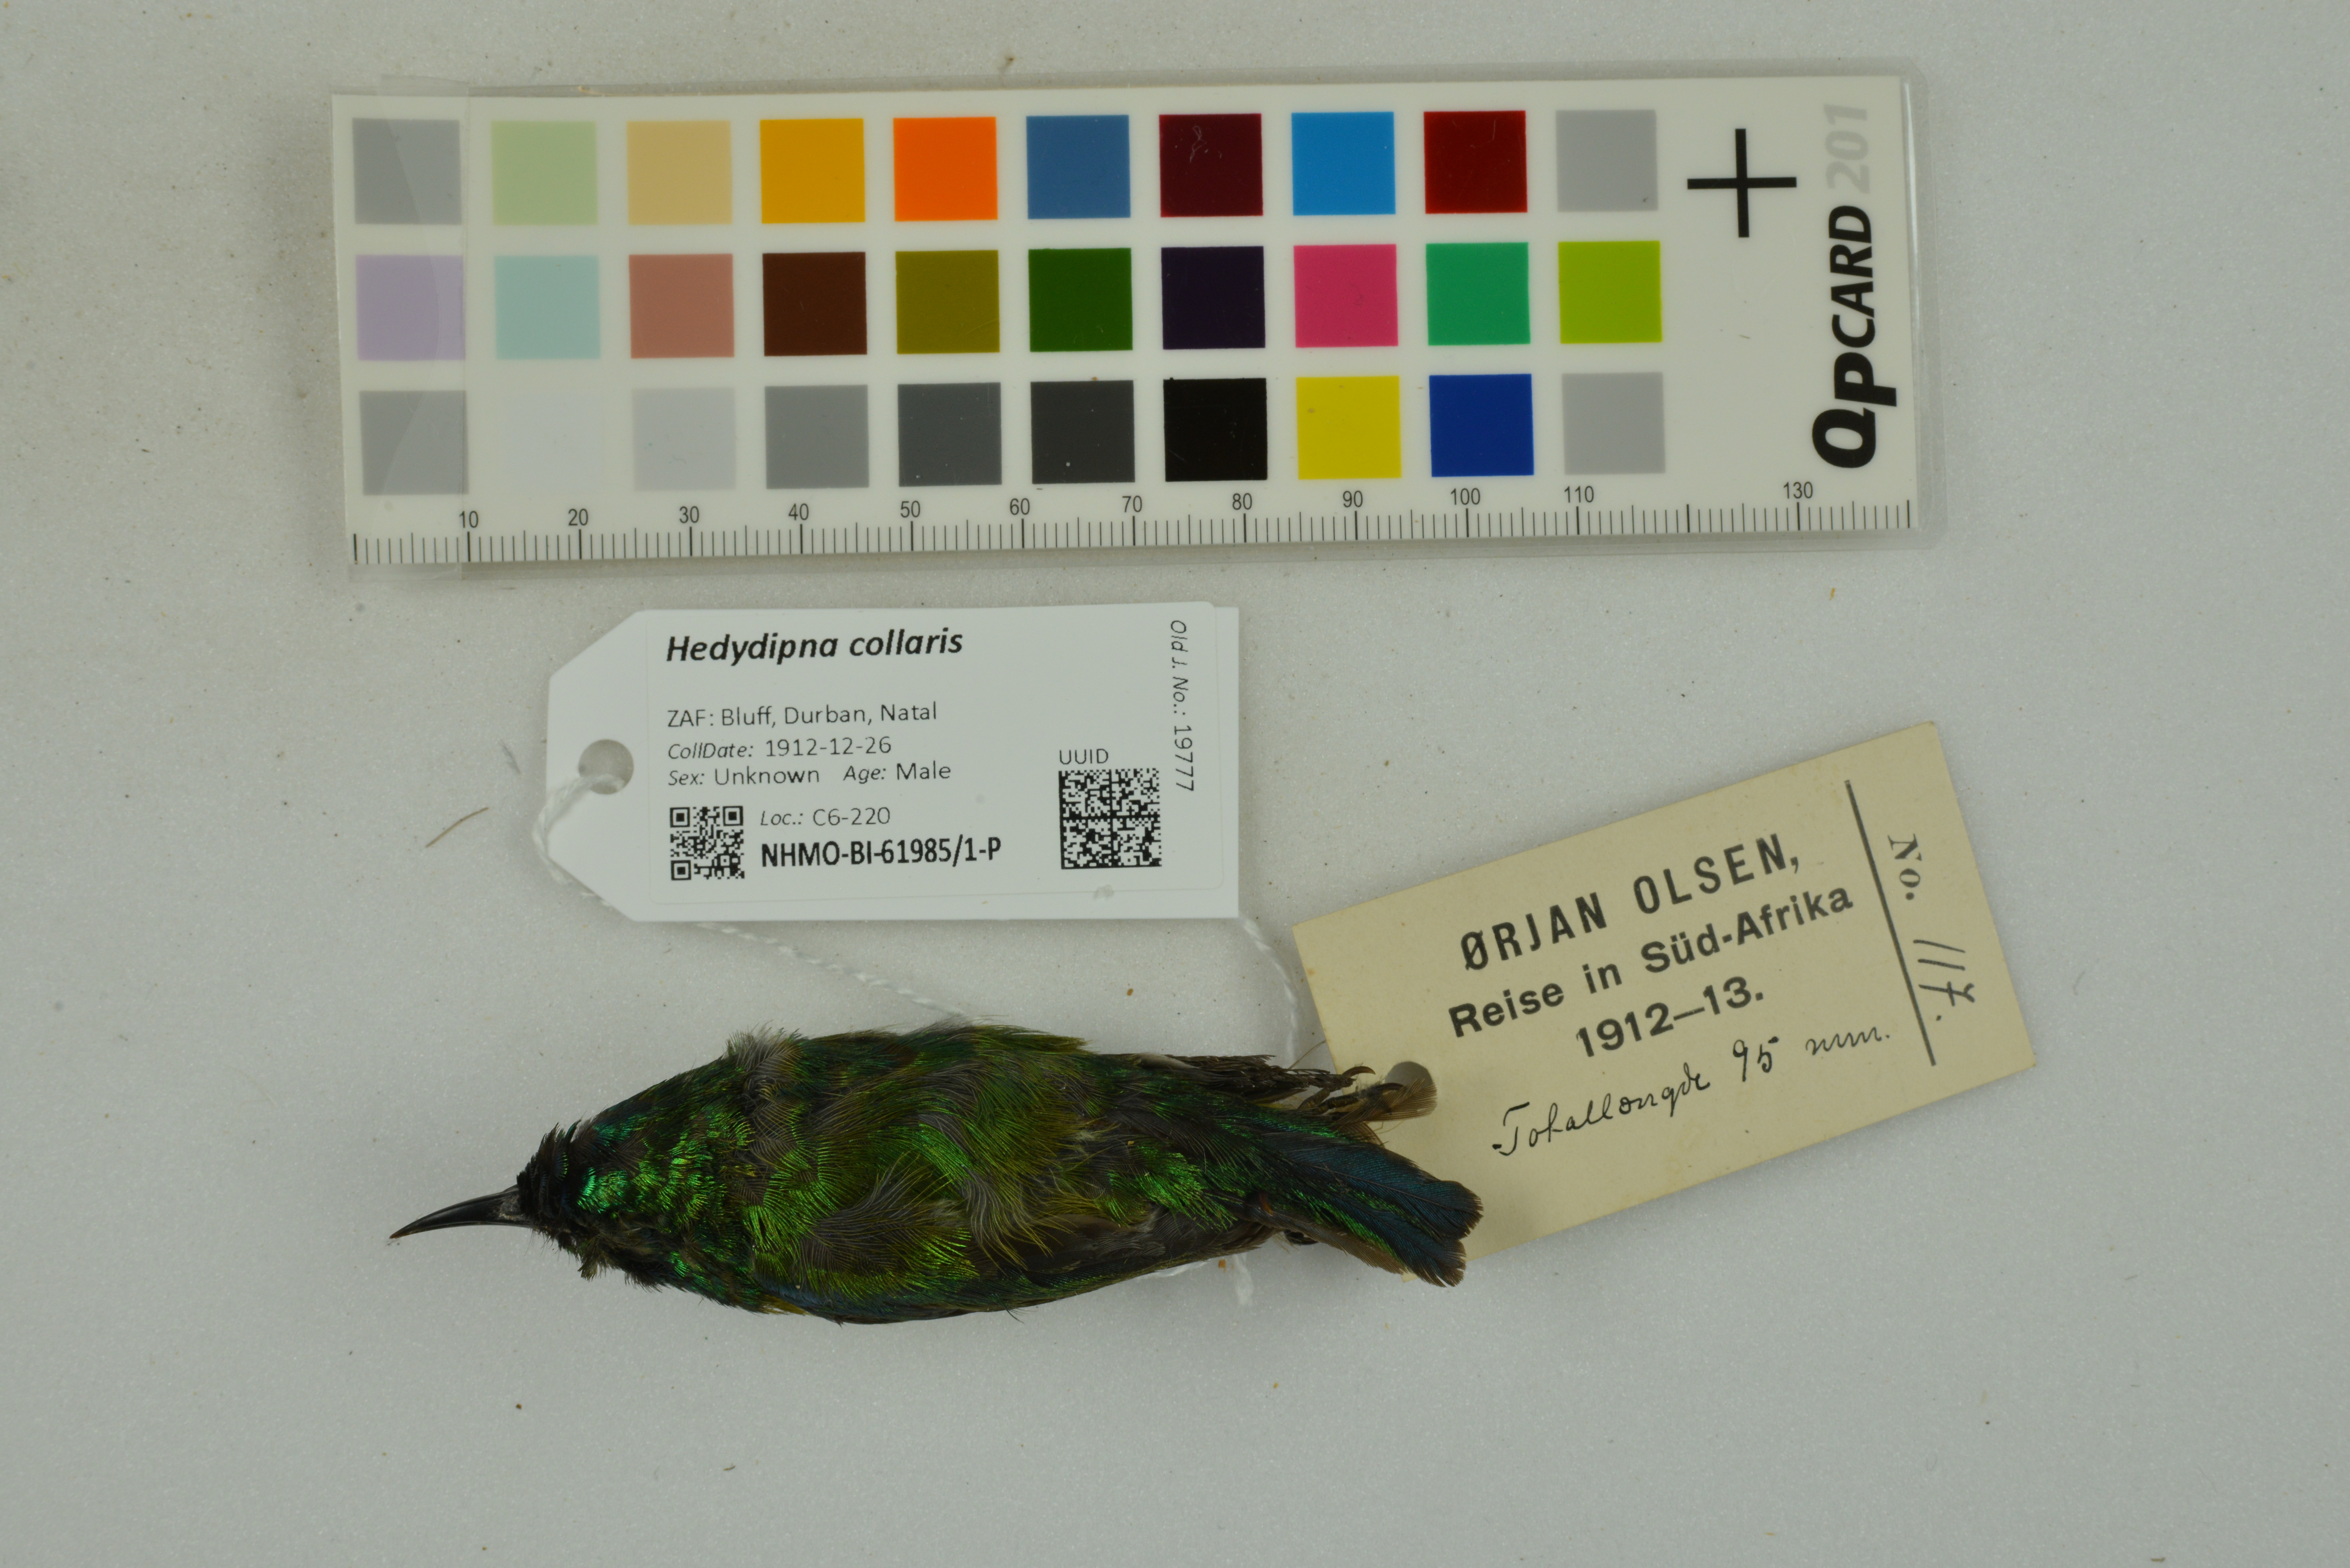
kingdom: Animalia
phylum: Chordata
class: Aves
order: Passeriformes
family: Nectariniidae
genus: Hedydipna
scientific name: Hedydipna collaris
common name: Collared sunbird
